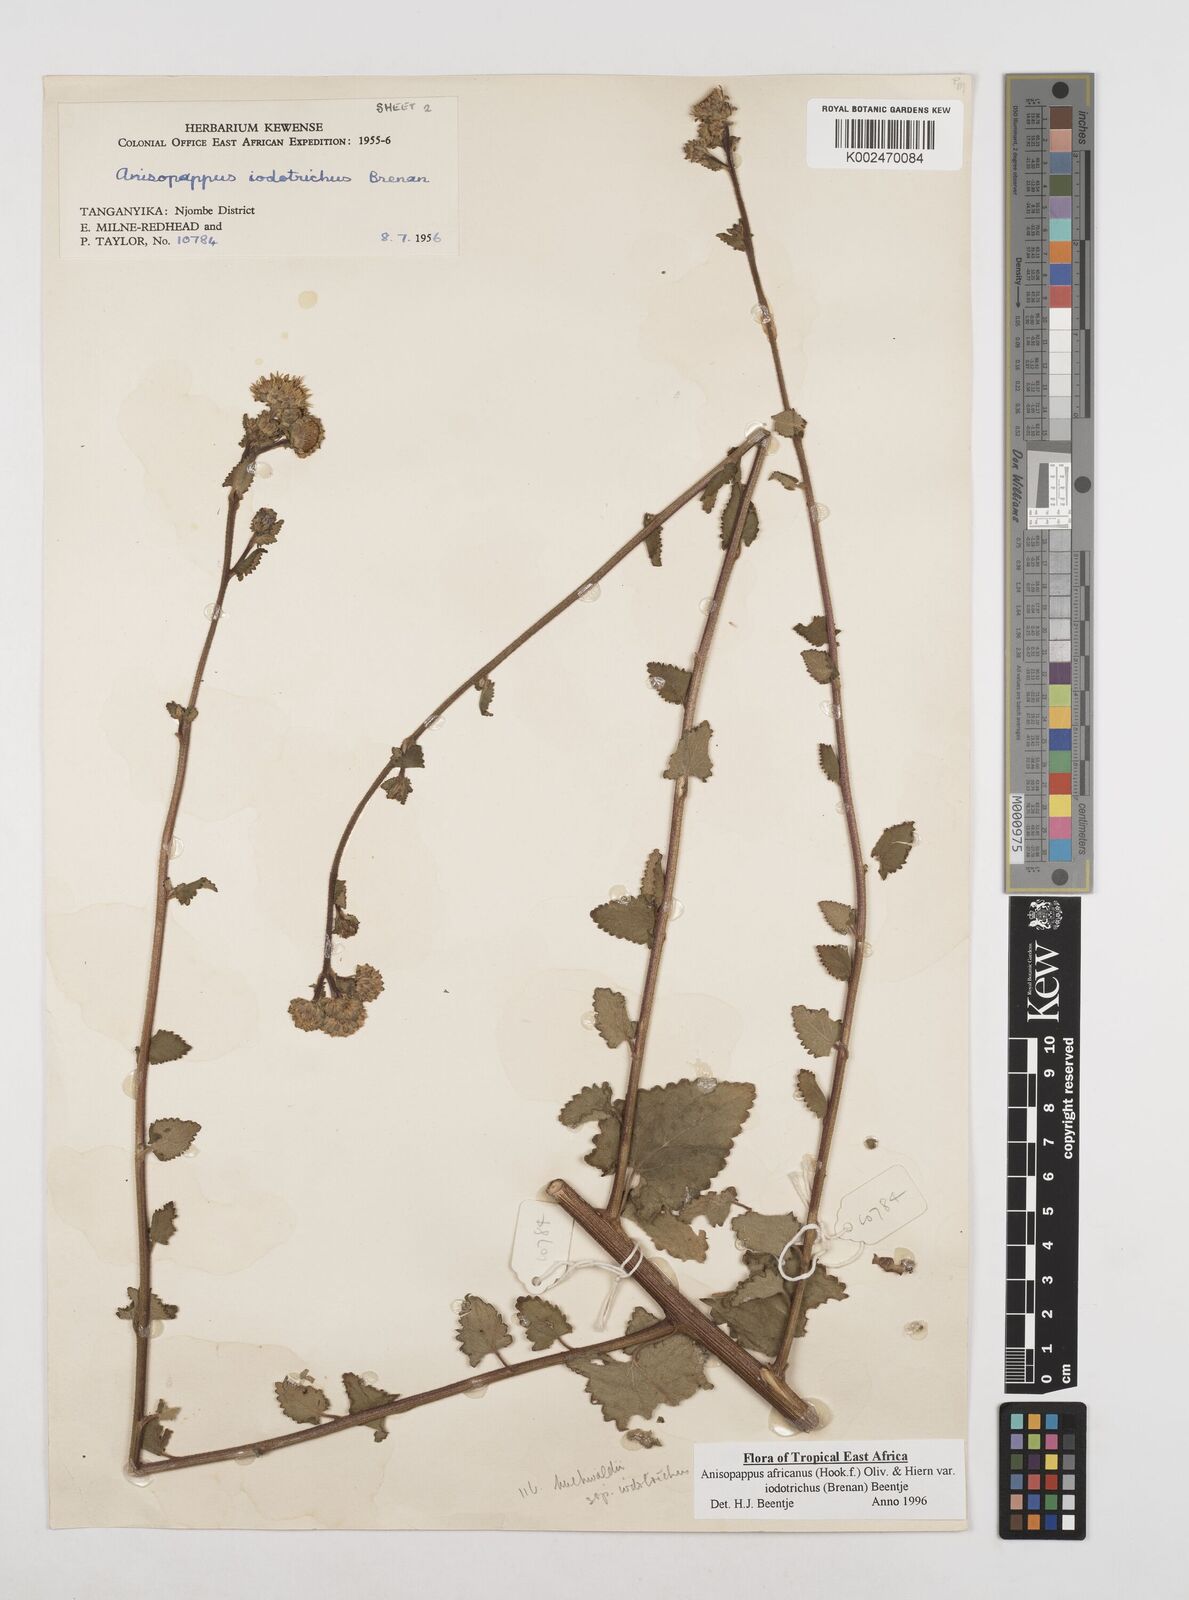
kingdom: Plantae
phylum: Tracheophyta
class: Magnoliopsida
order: Asterales
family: Asteraceae
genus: Anisopappus
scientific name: Anisopappus buchwaldii
